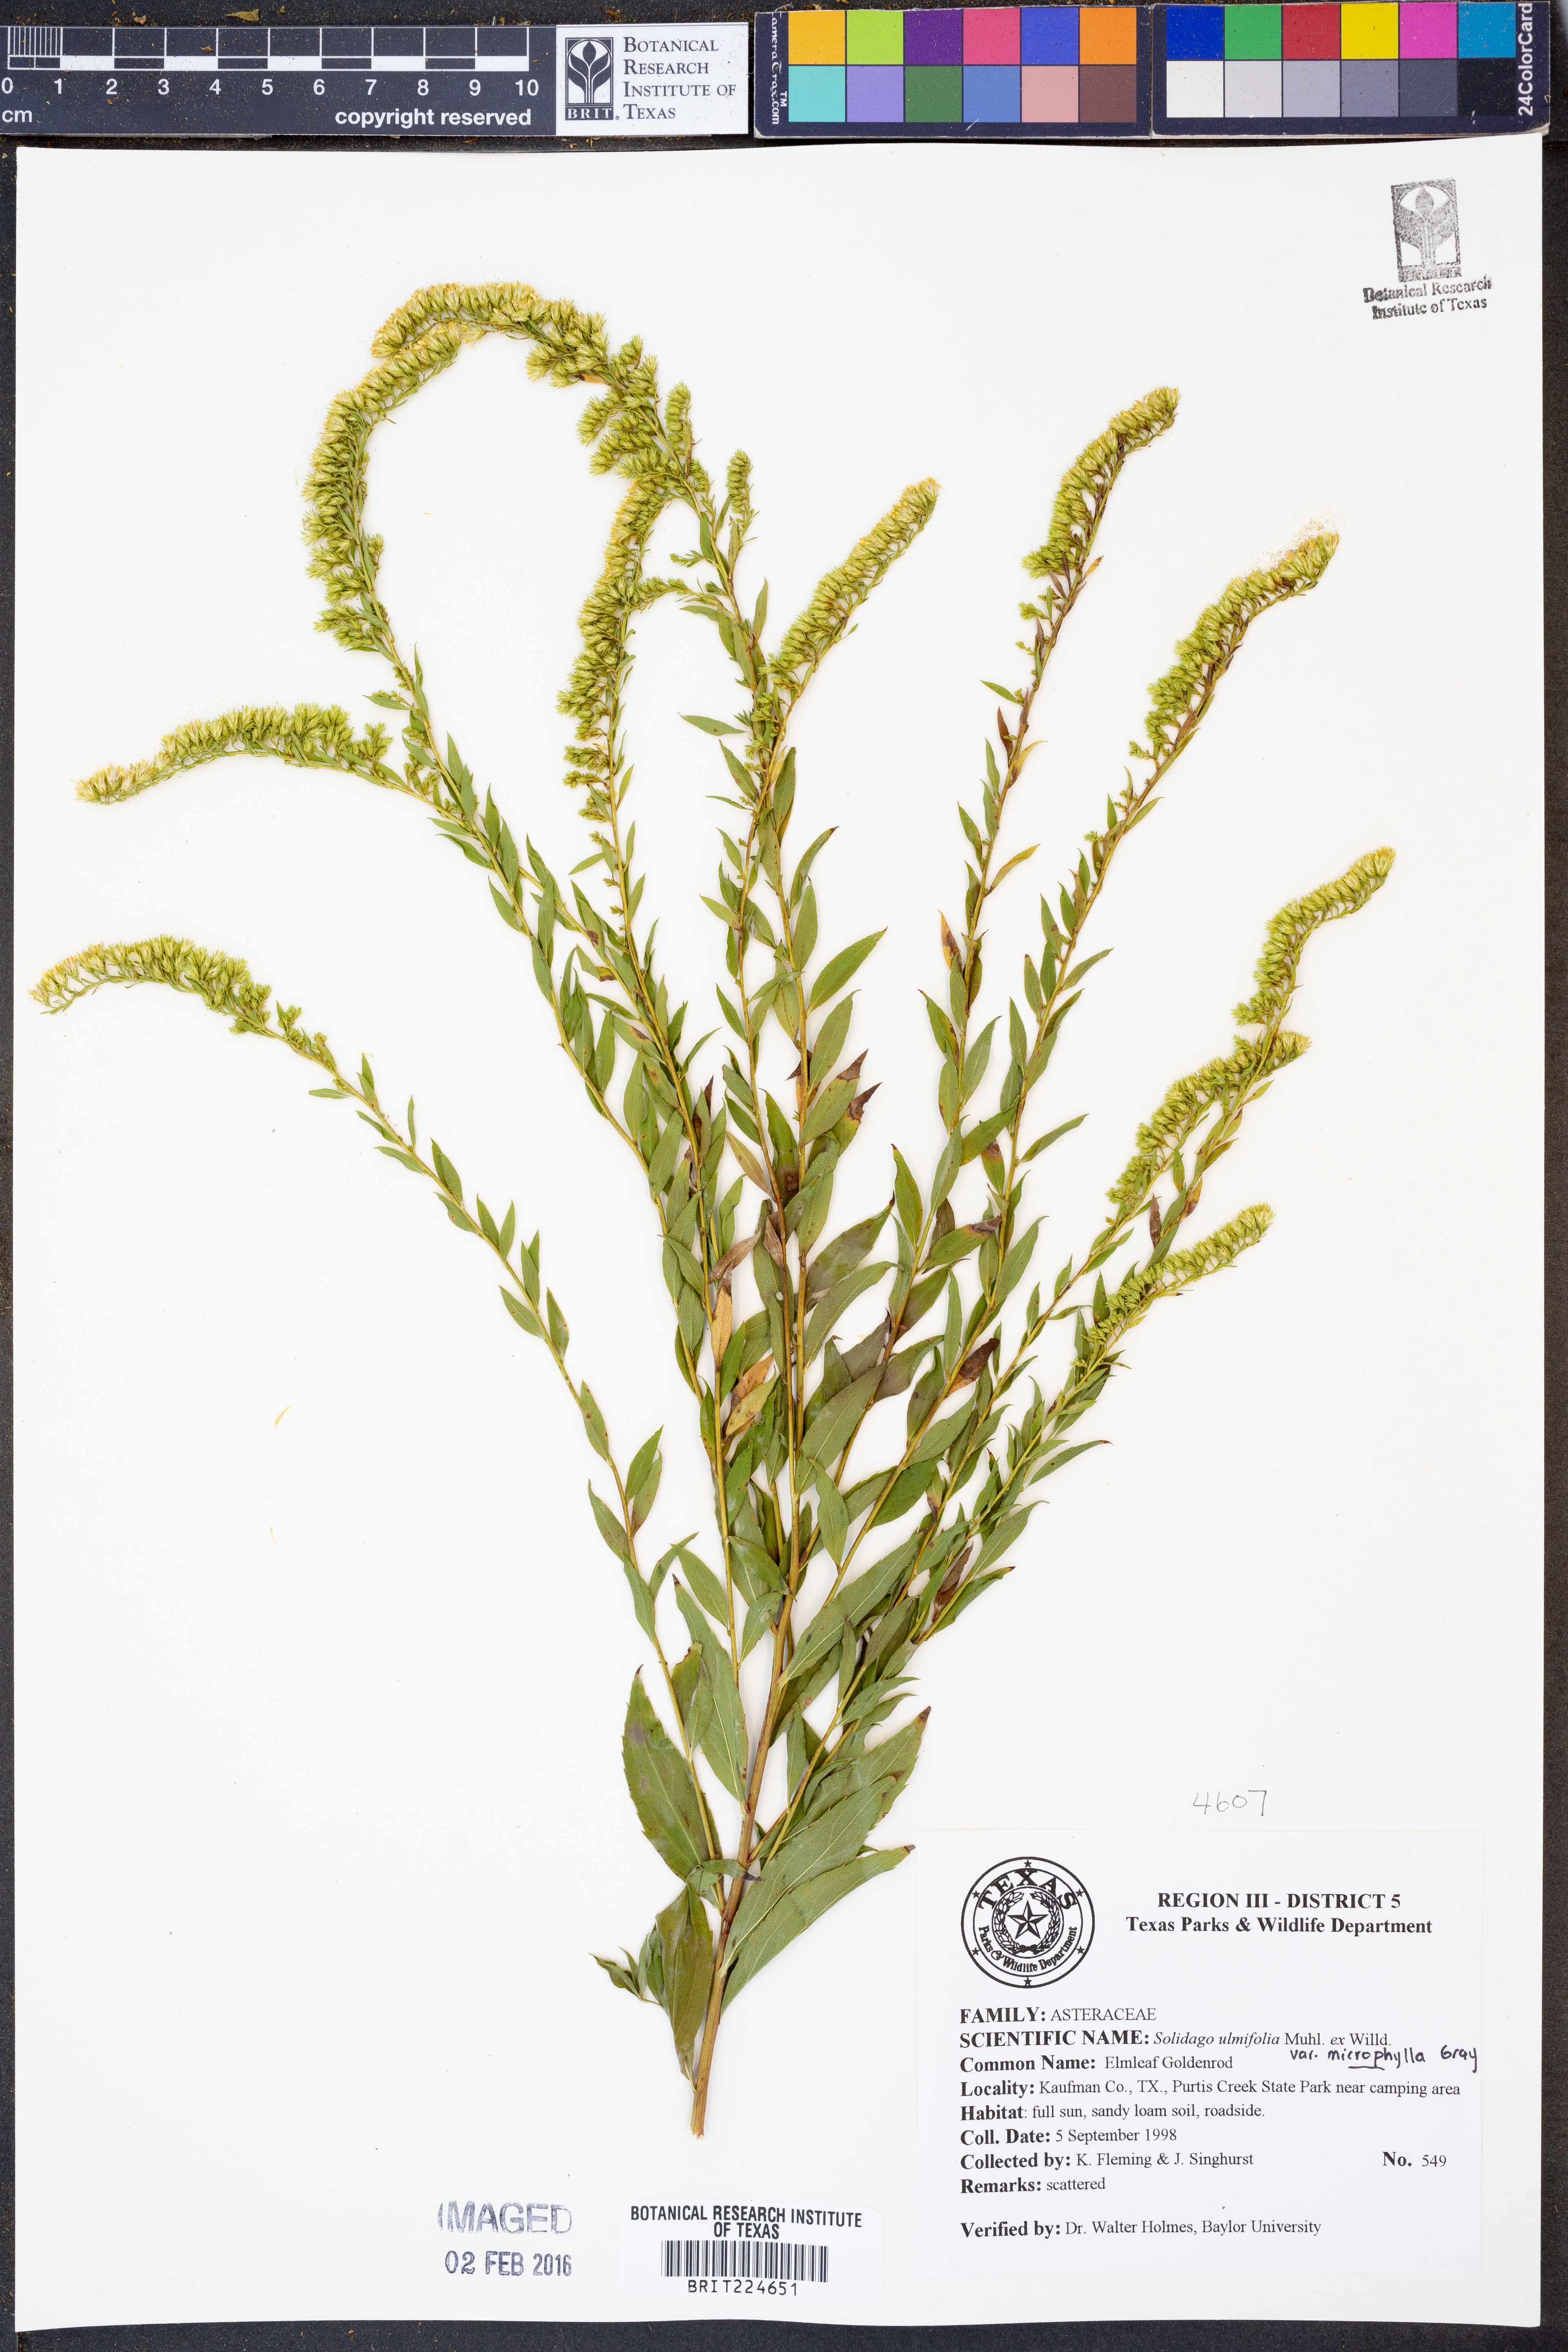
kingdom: Plantae
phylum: Tracheophyta
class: Magnoliopsida
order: Asterales
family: Asteraceae
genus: Solidago
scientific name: Solidago delicatula
